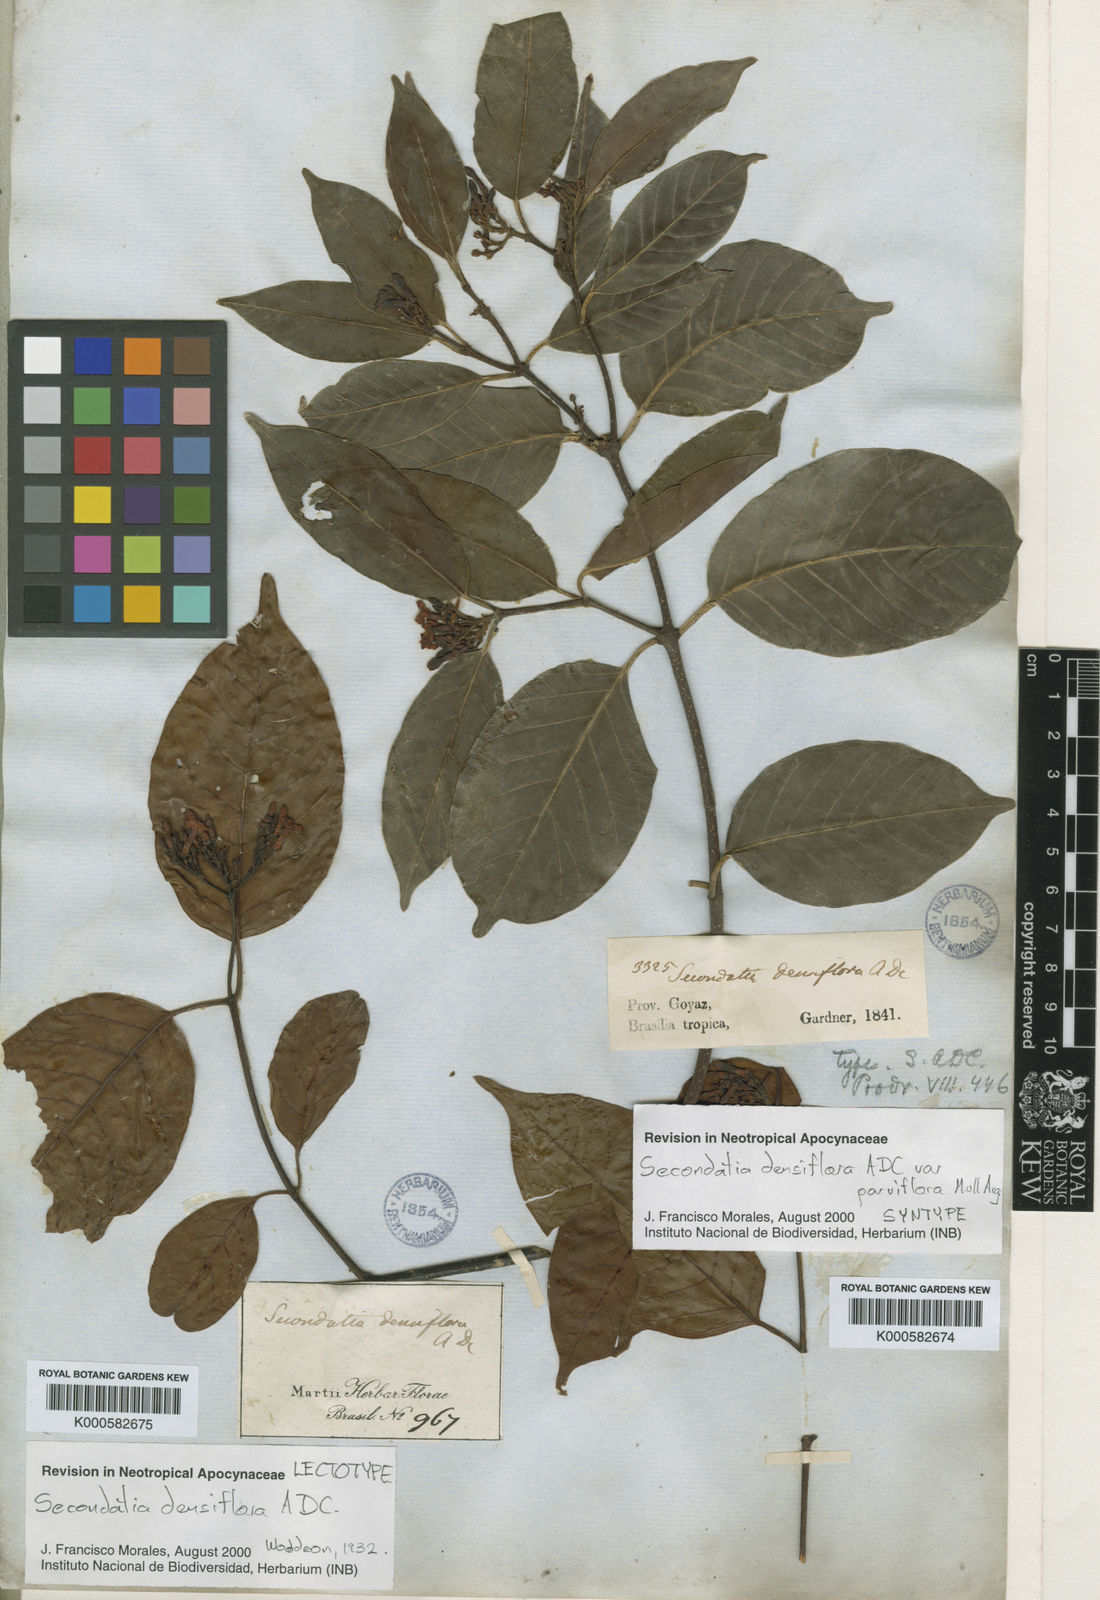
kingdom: Plantae
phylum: Tracheophyta
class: Magnoliopsida
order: Gentianales
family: Apocynaceae
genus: Secondatia
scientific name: Secondatia densiflora
